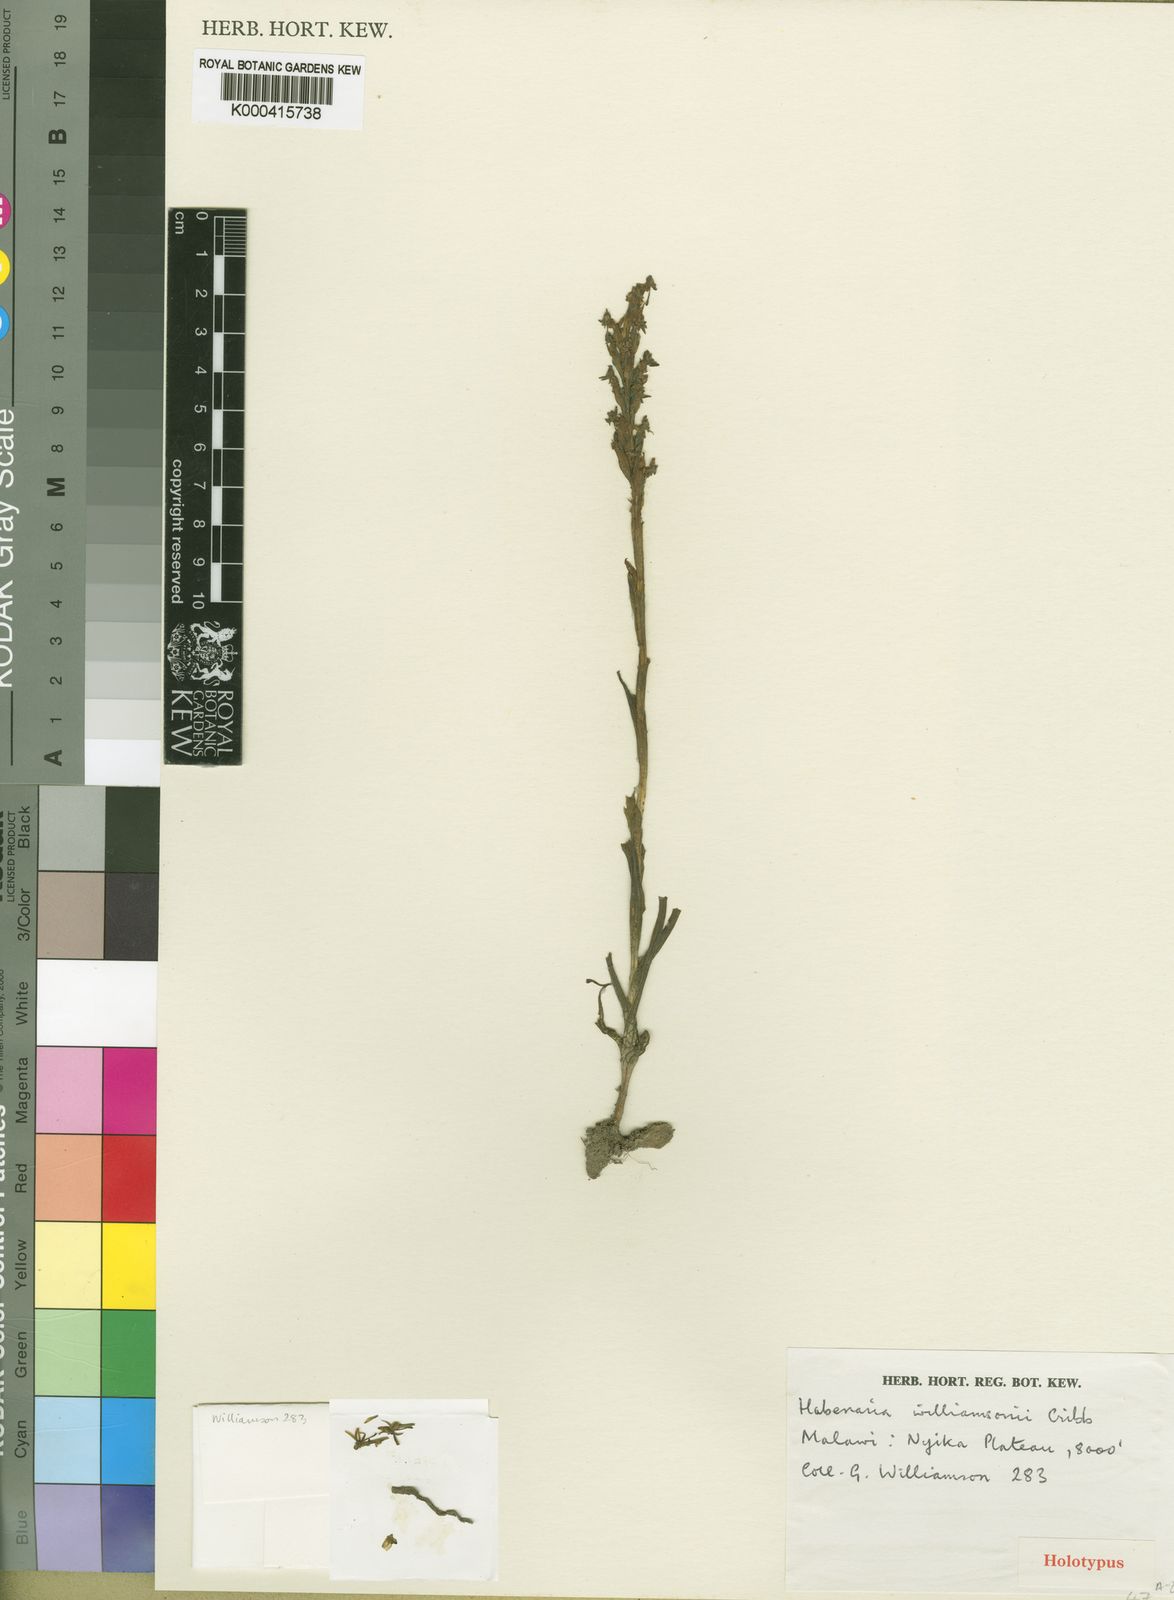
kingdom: Plantae
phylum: Tracheophyta
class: Liliopsida
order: Asparagales
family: Orchidaceae
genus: Habenaria
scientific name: Habenaria arianae
